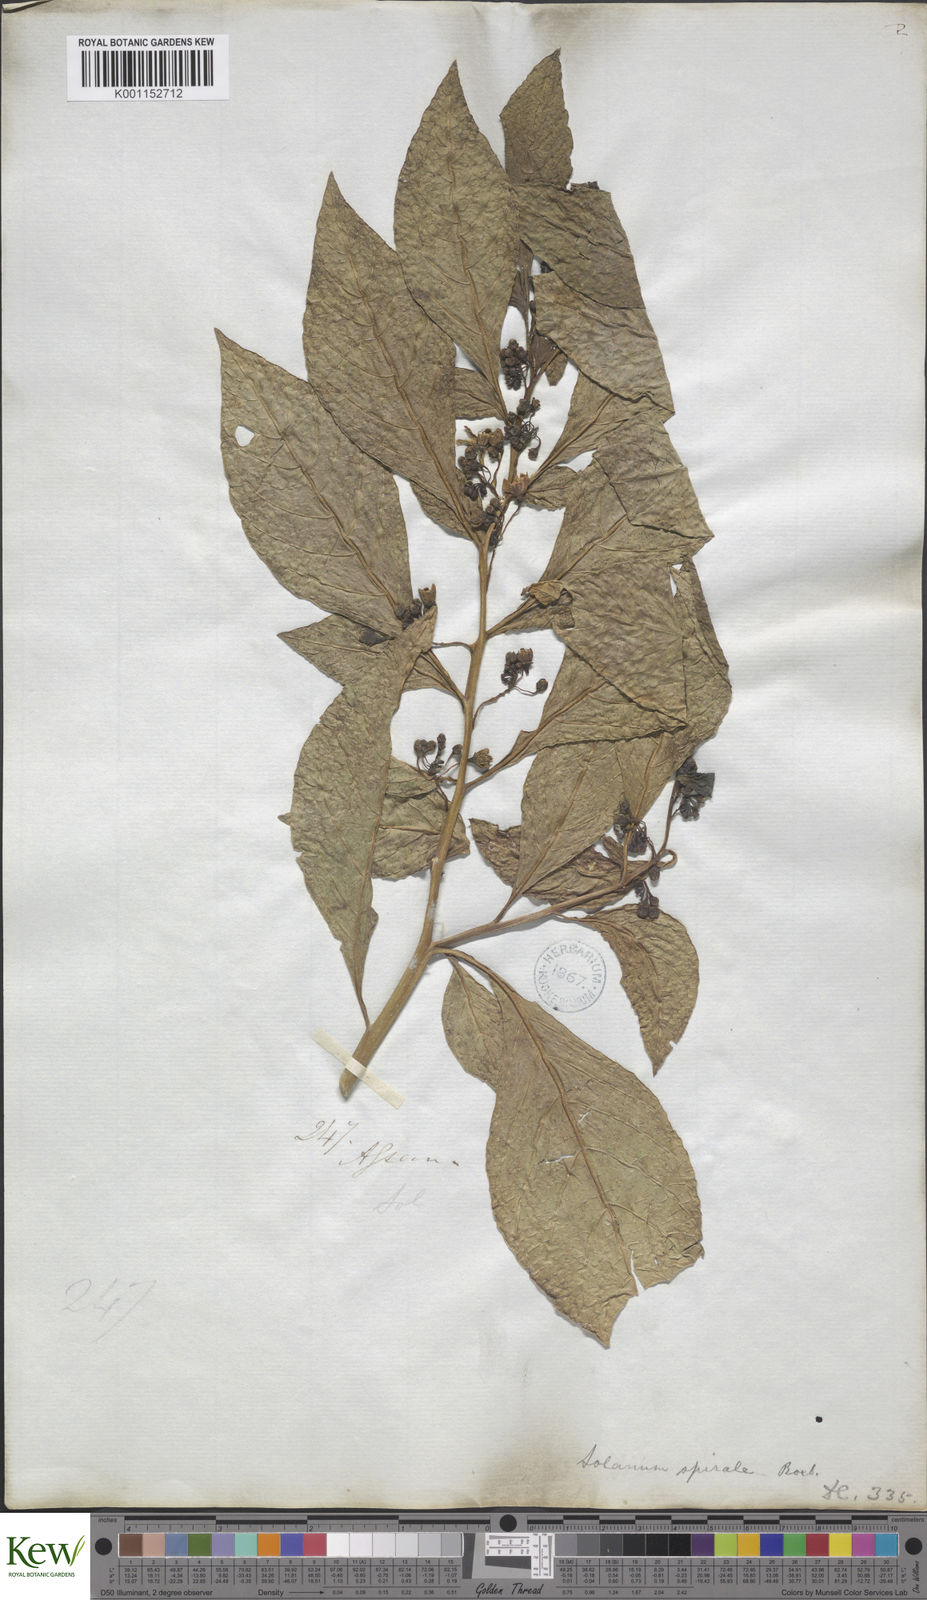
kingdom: Plantae
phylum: Tracheophyta
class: Magnoliopsida
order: Solanales
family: Solanaceae
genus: Solanum
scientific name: Solanum spirale
